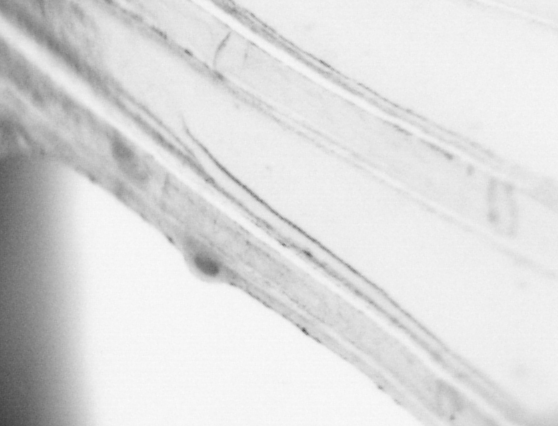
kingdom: Animalia
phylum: Chordata
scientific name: Chordata
